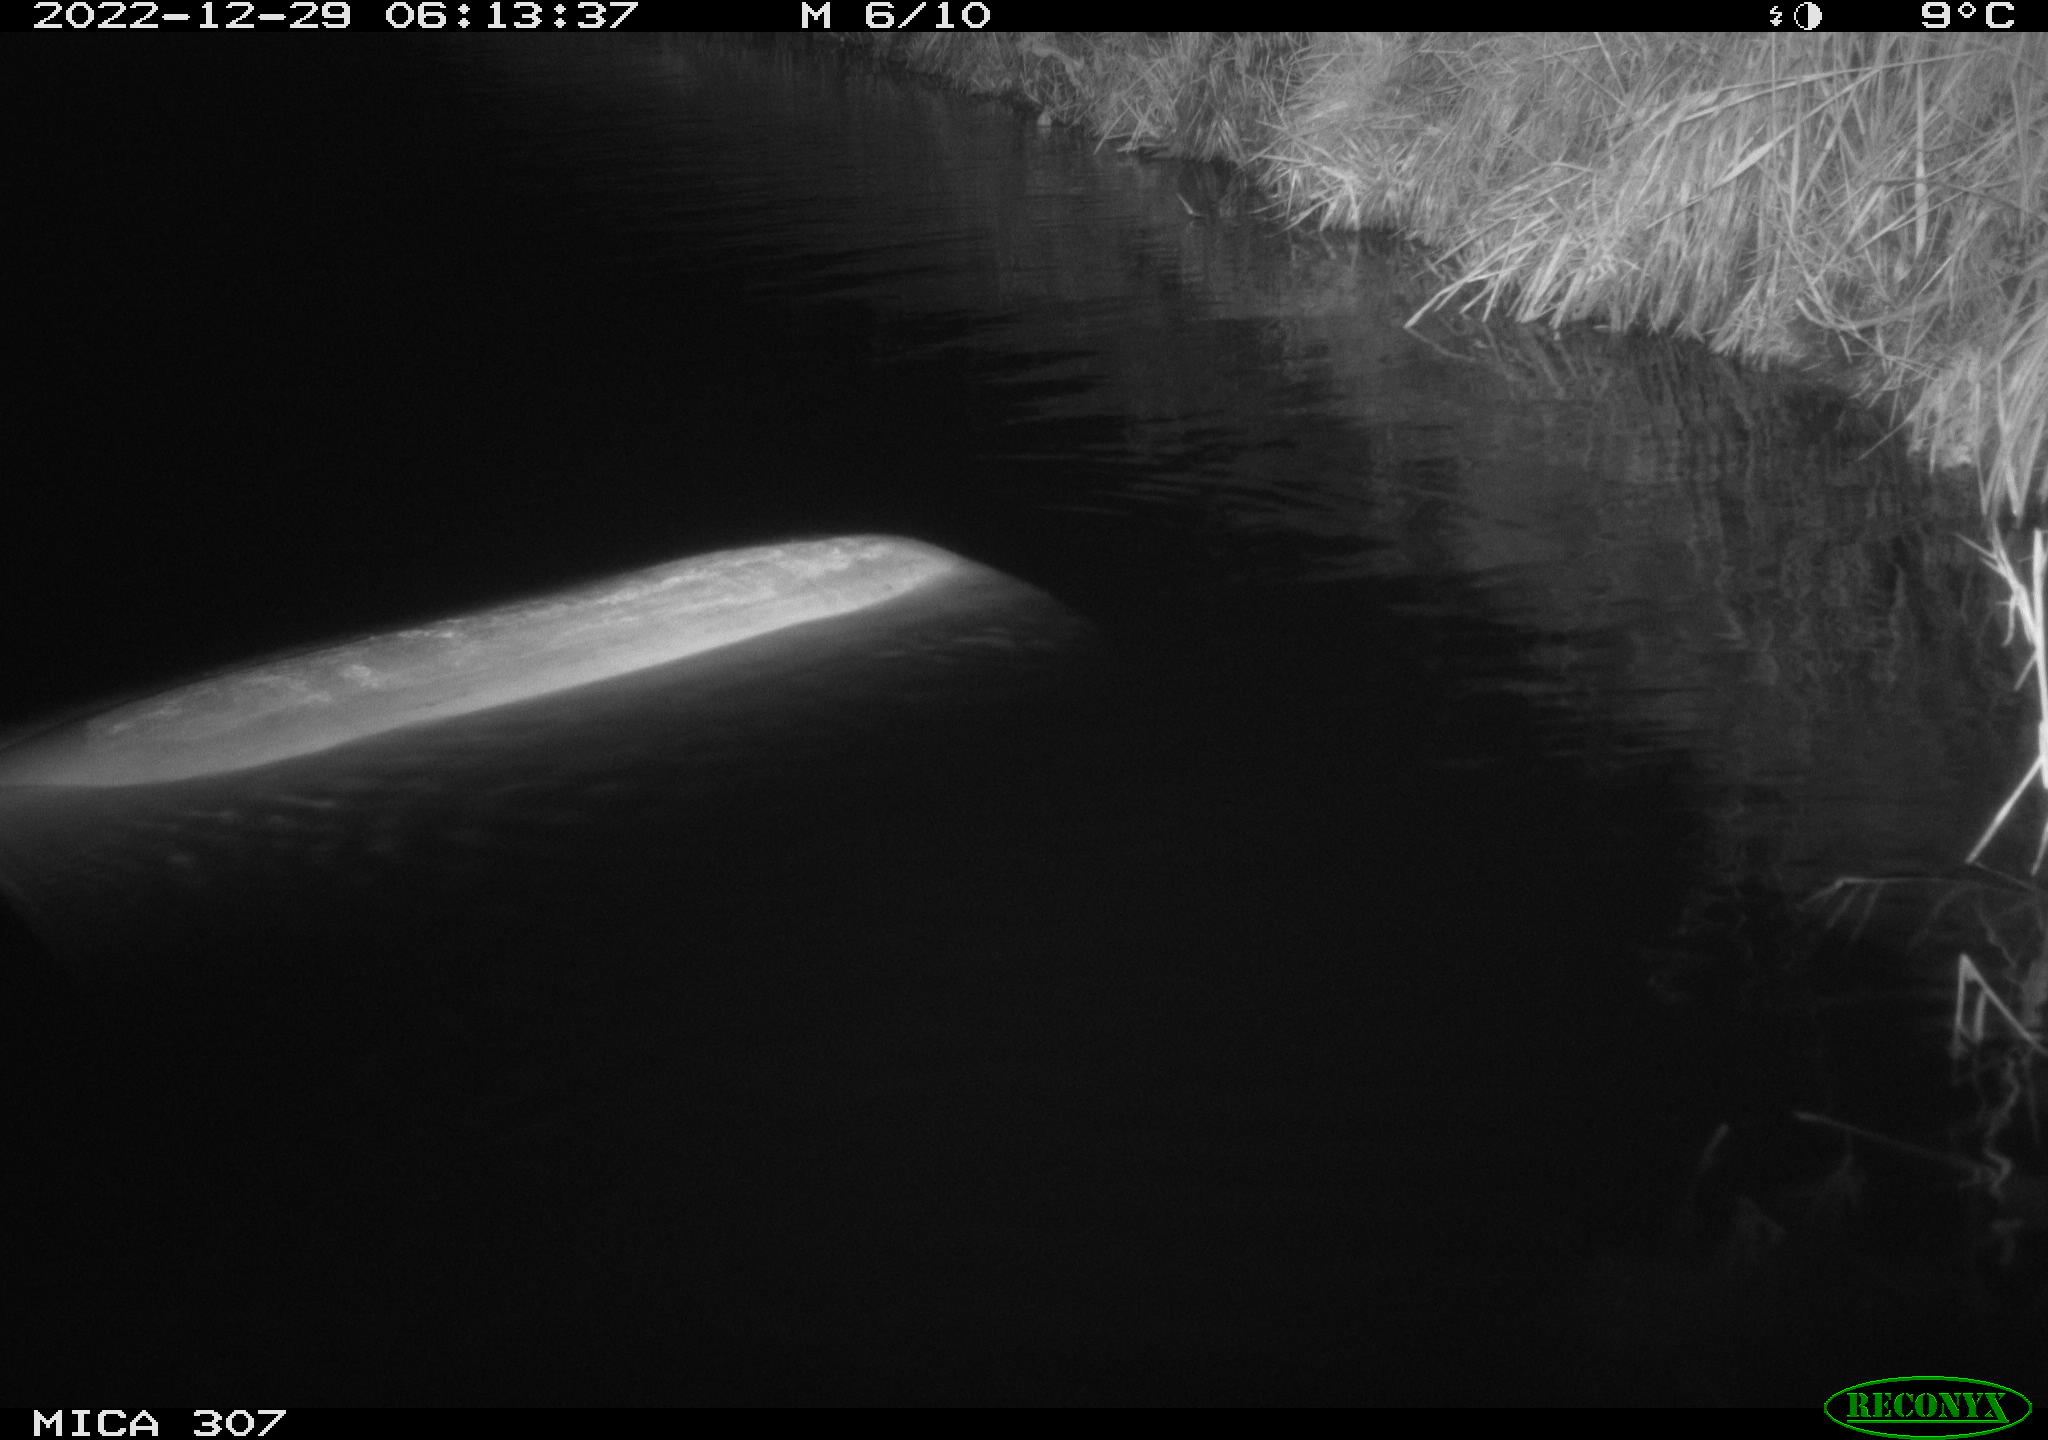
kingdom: Animalia
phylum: Chordata
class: Mammalia
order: Rodentia
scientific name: Rodentia
